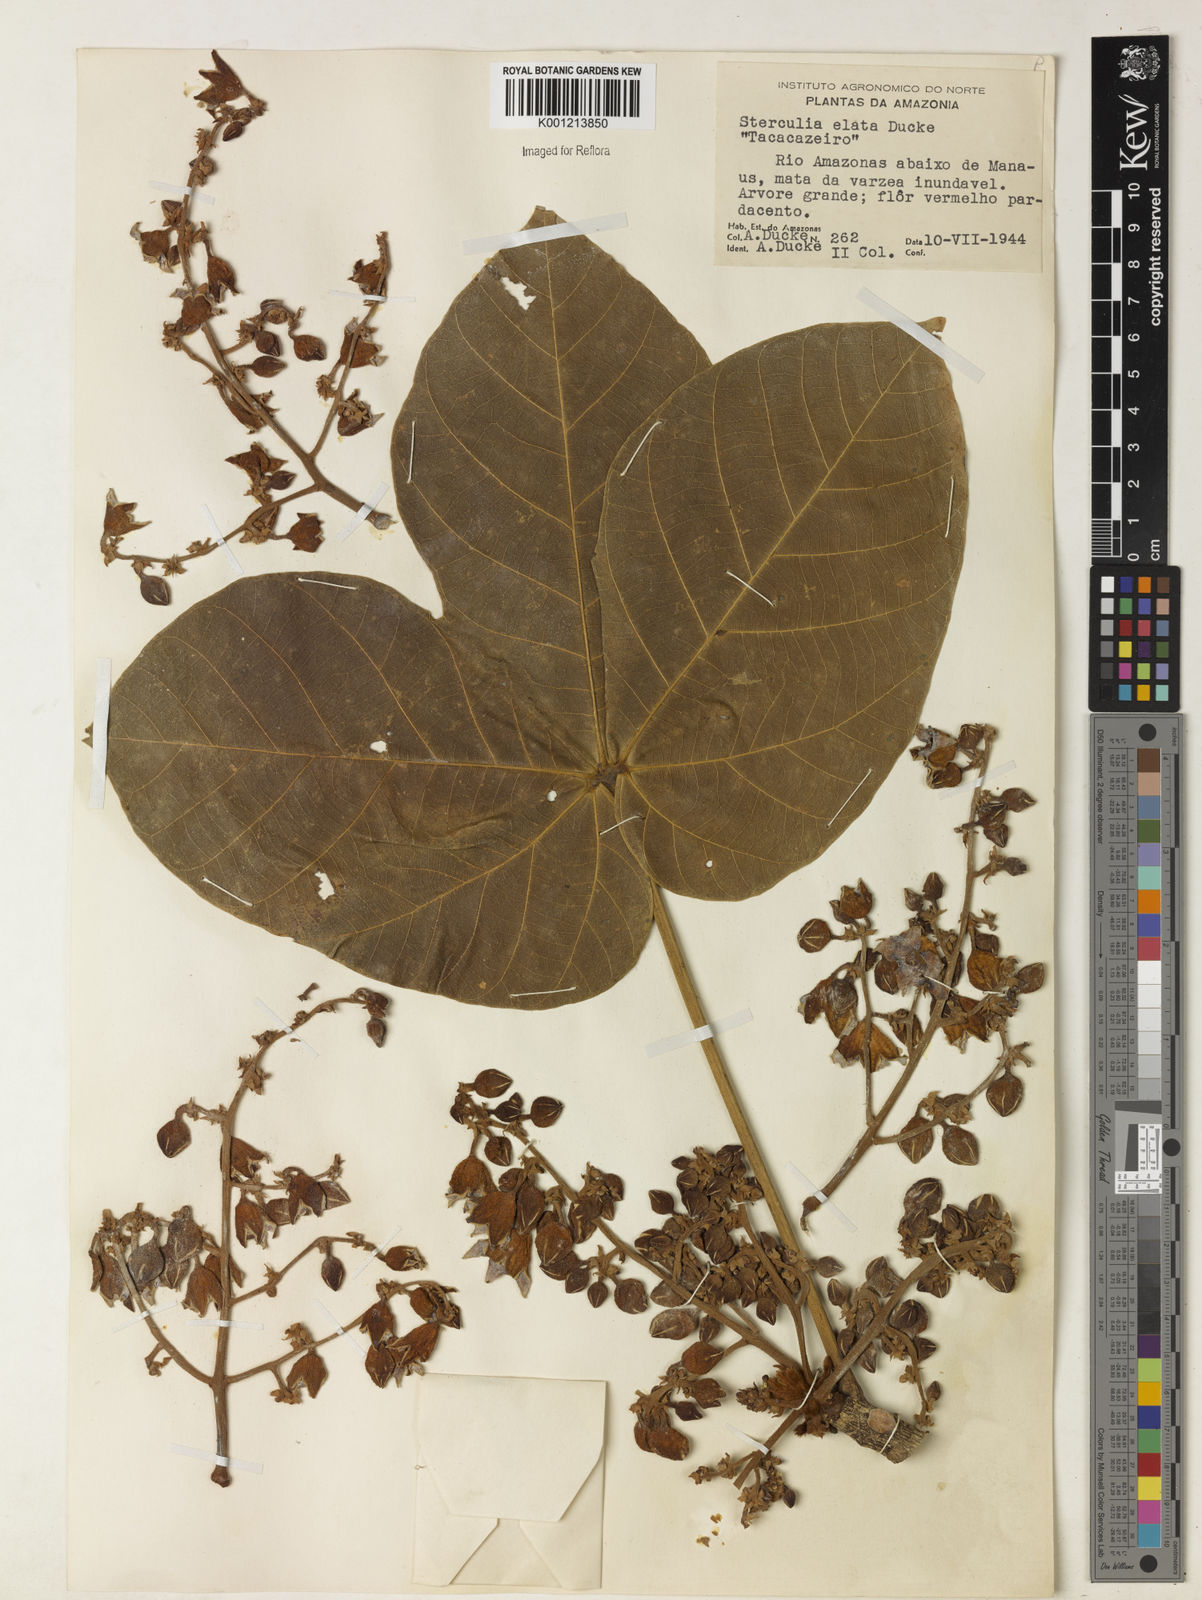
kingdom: Plantae
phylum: Tracheophyta
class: Magnoliopsida
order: Malvales
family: Malvaceae
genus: Sterculia
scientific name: Sterculia apetala
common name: Panama tree
